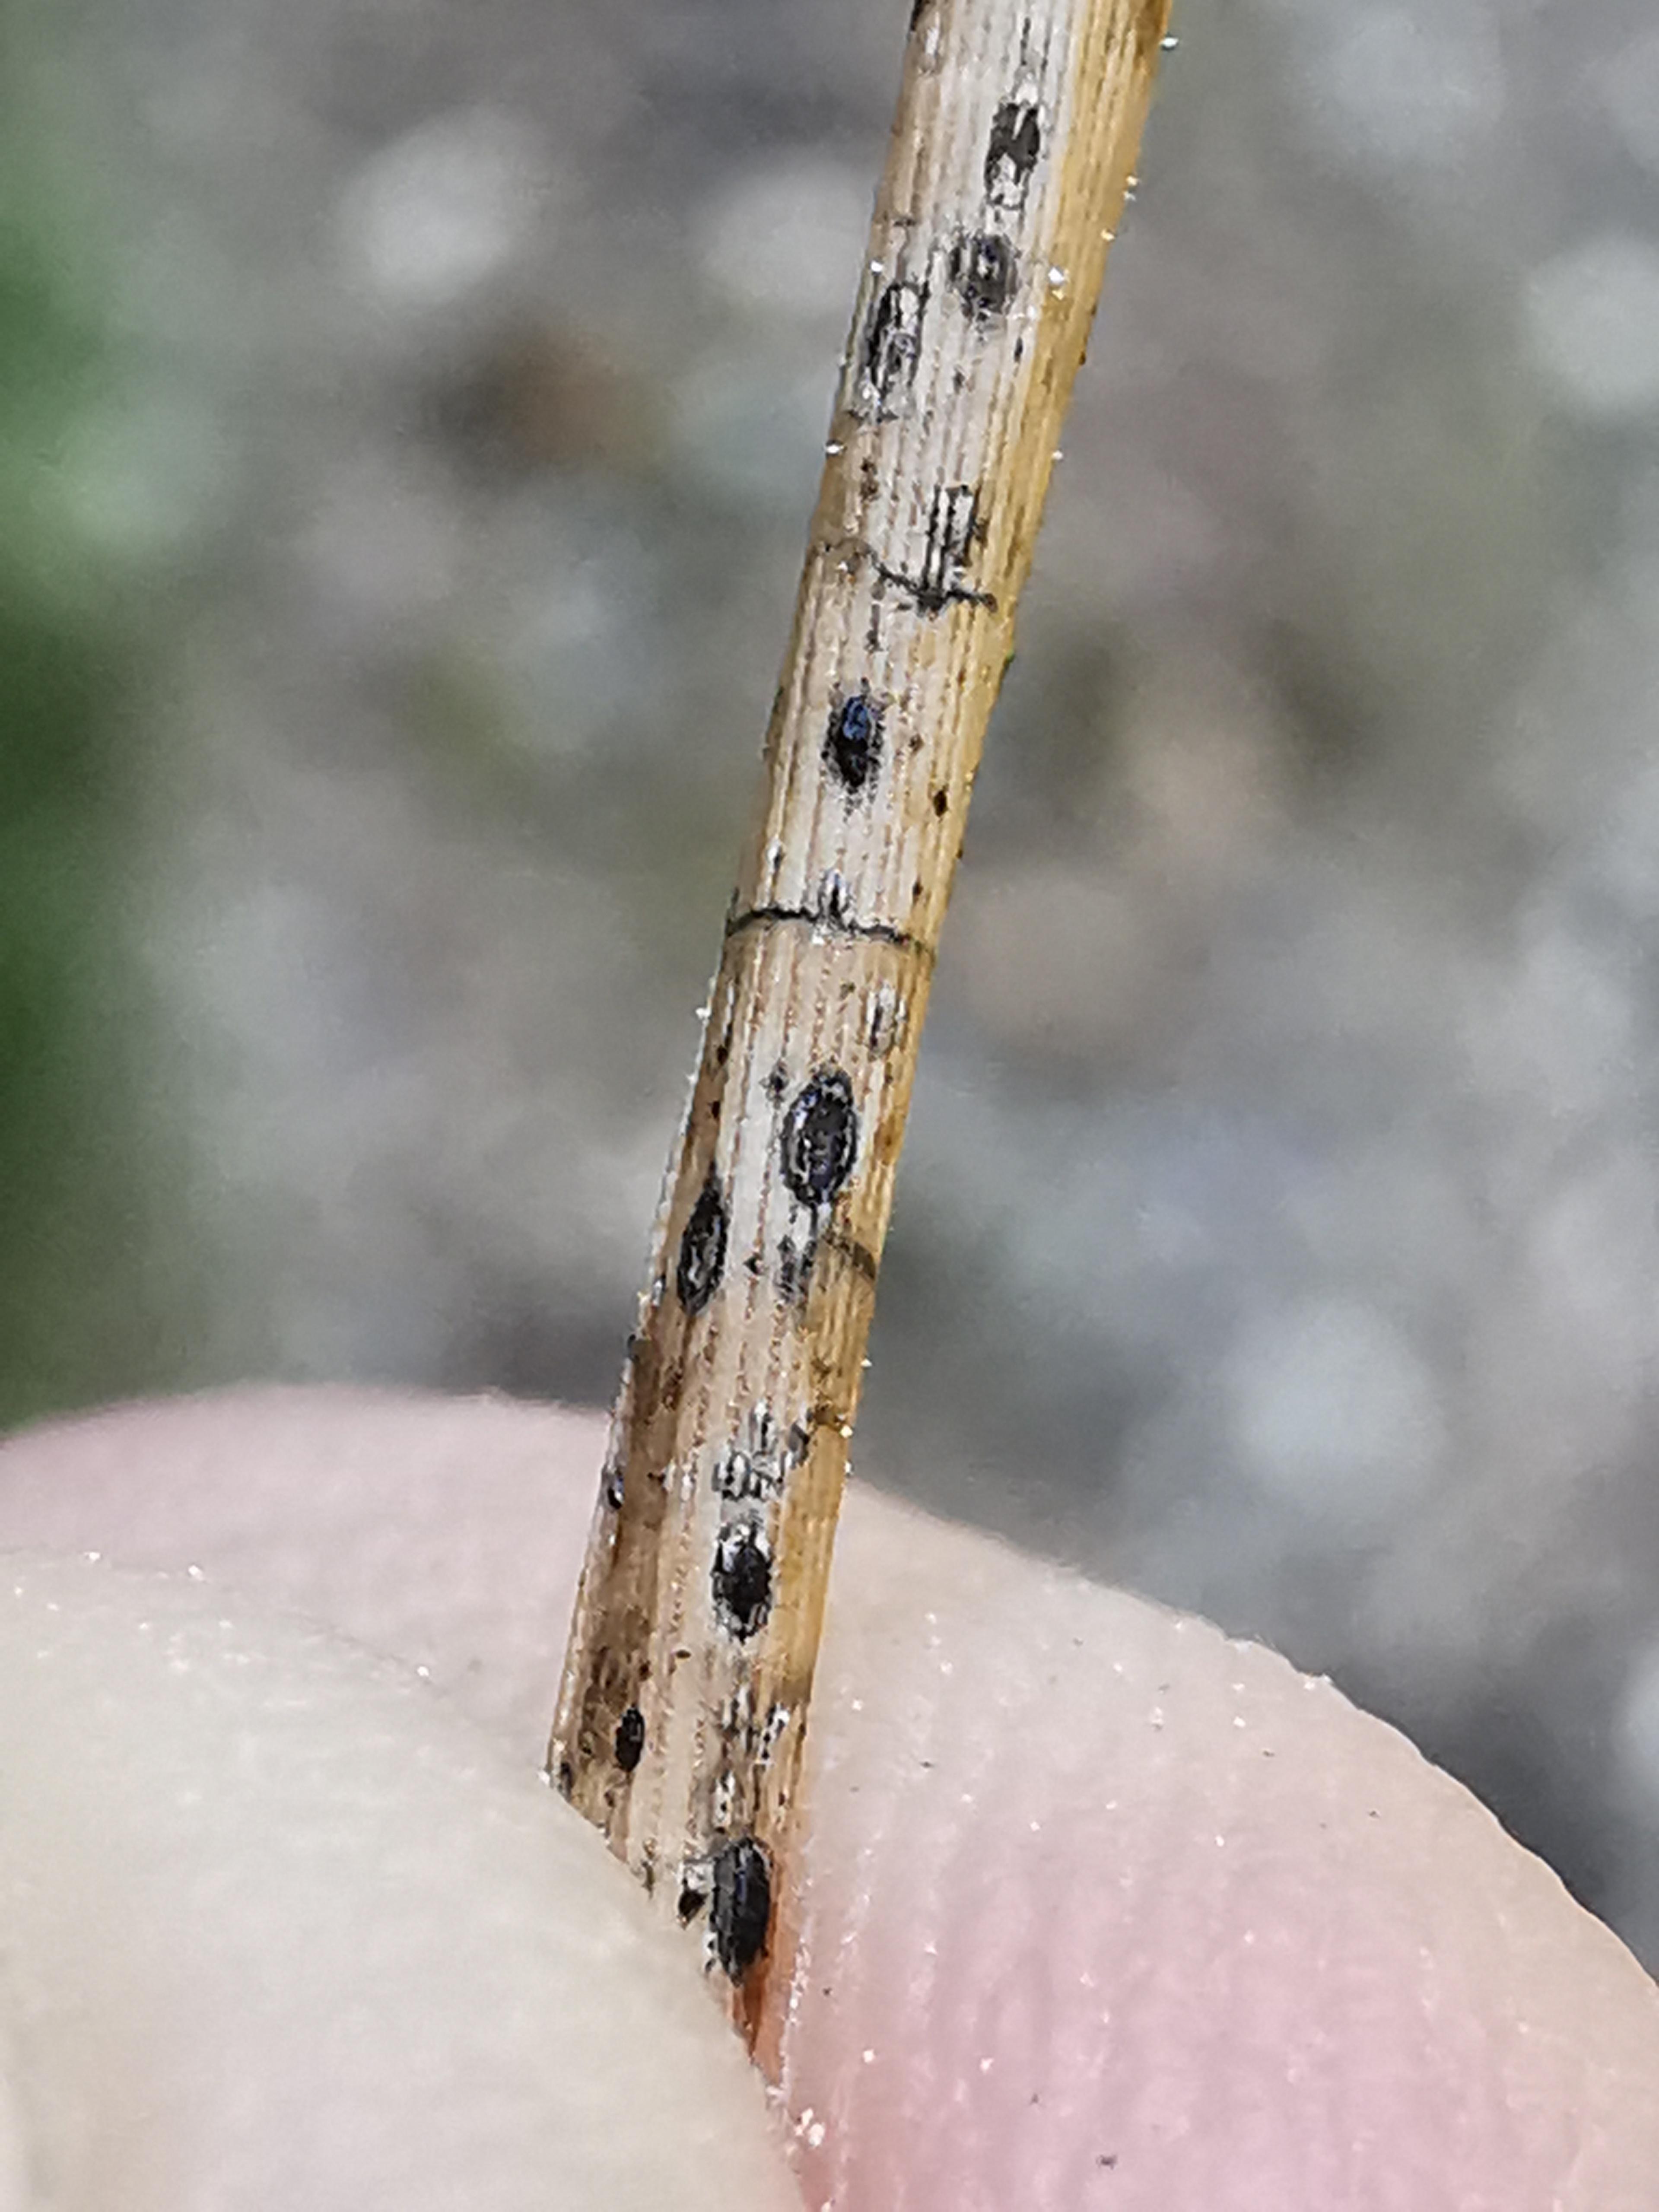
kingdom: Fungi
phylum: Ascomycota
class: Leotiomycetes
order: Rhytismatales
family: Rhytismataceae
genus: Lophodermium
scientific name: Lophodermium pinastri
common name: fyrre-fureplet
